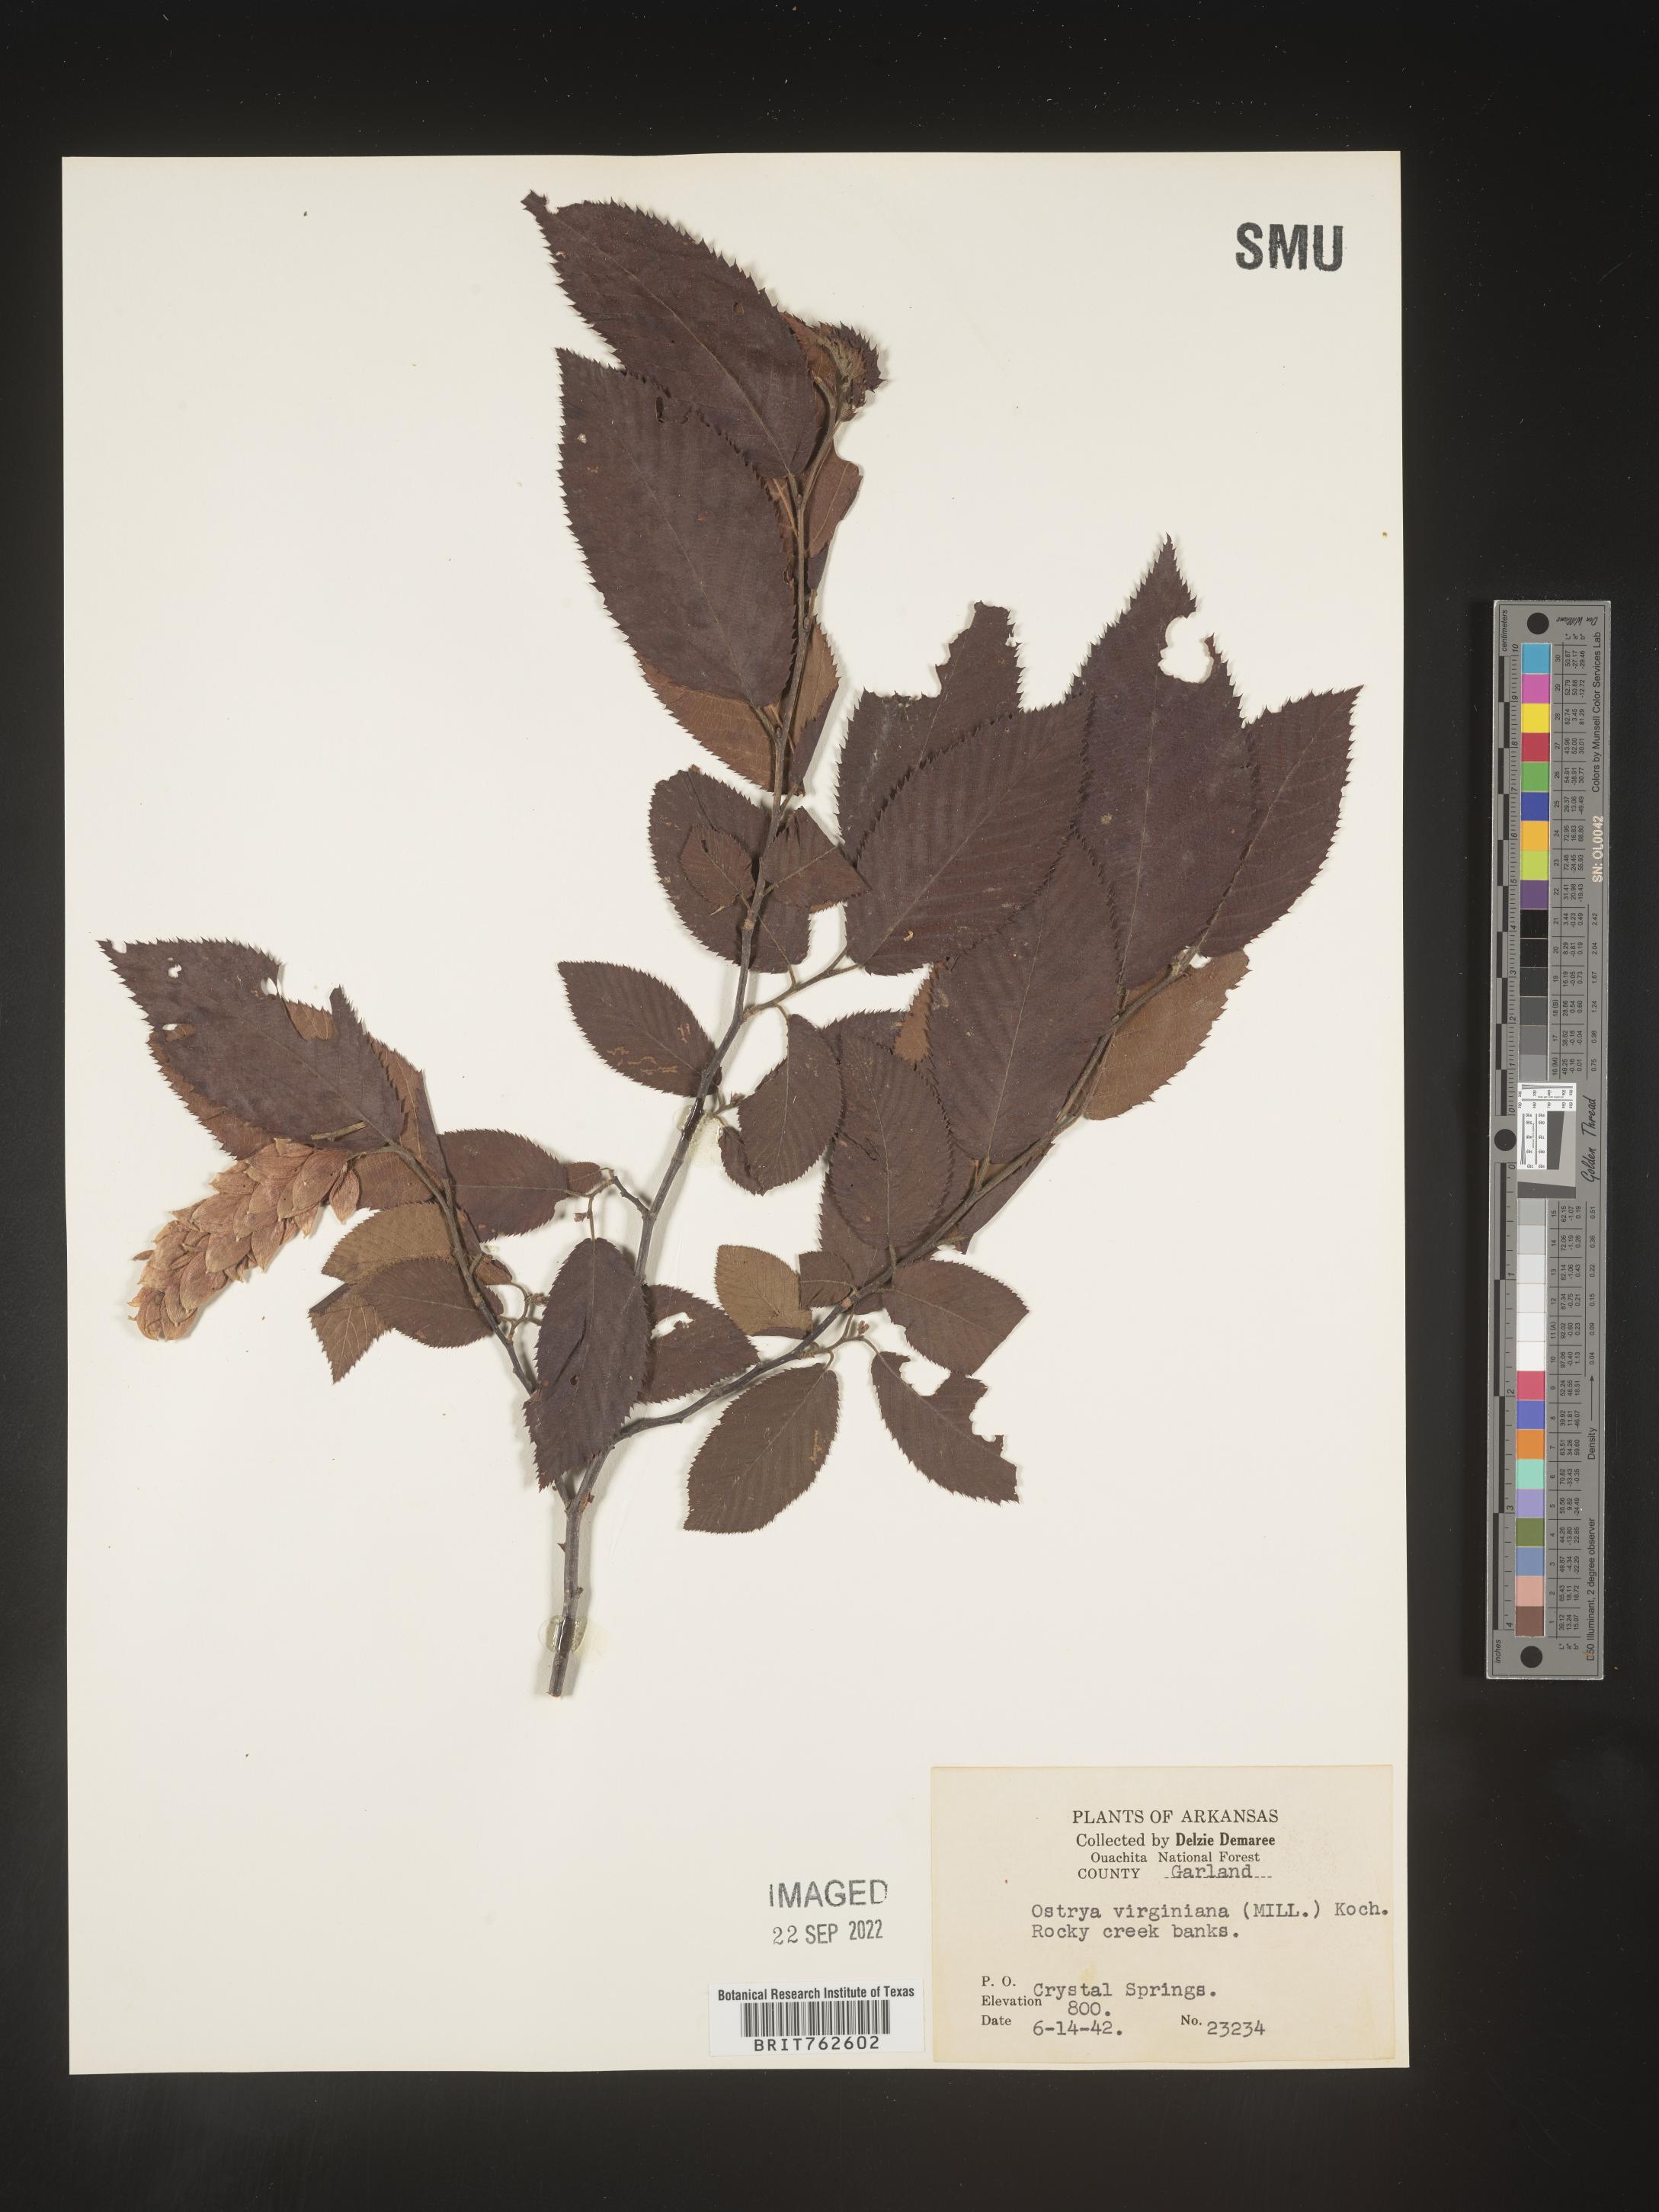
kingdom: Plantae
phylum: Tracheophyta
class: Magnoliopsida
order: Fagales
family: Betulaceae
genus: Ostrya
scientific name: Ostrya virginiana
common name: Ironwood
